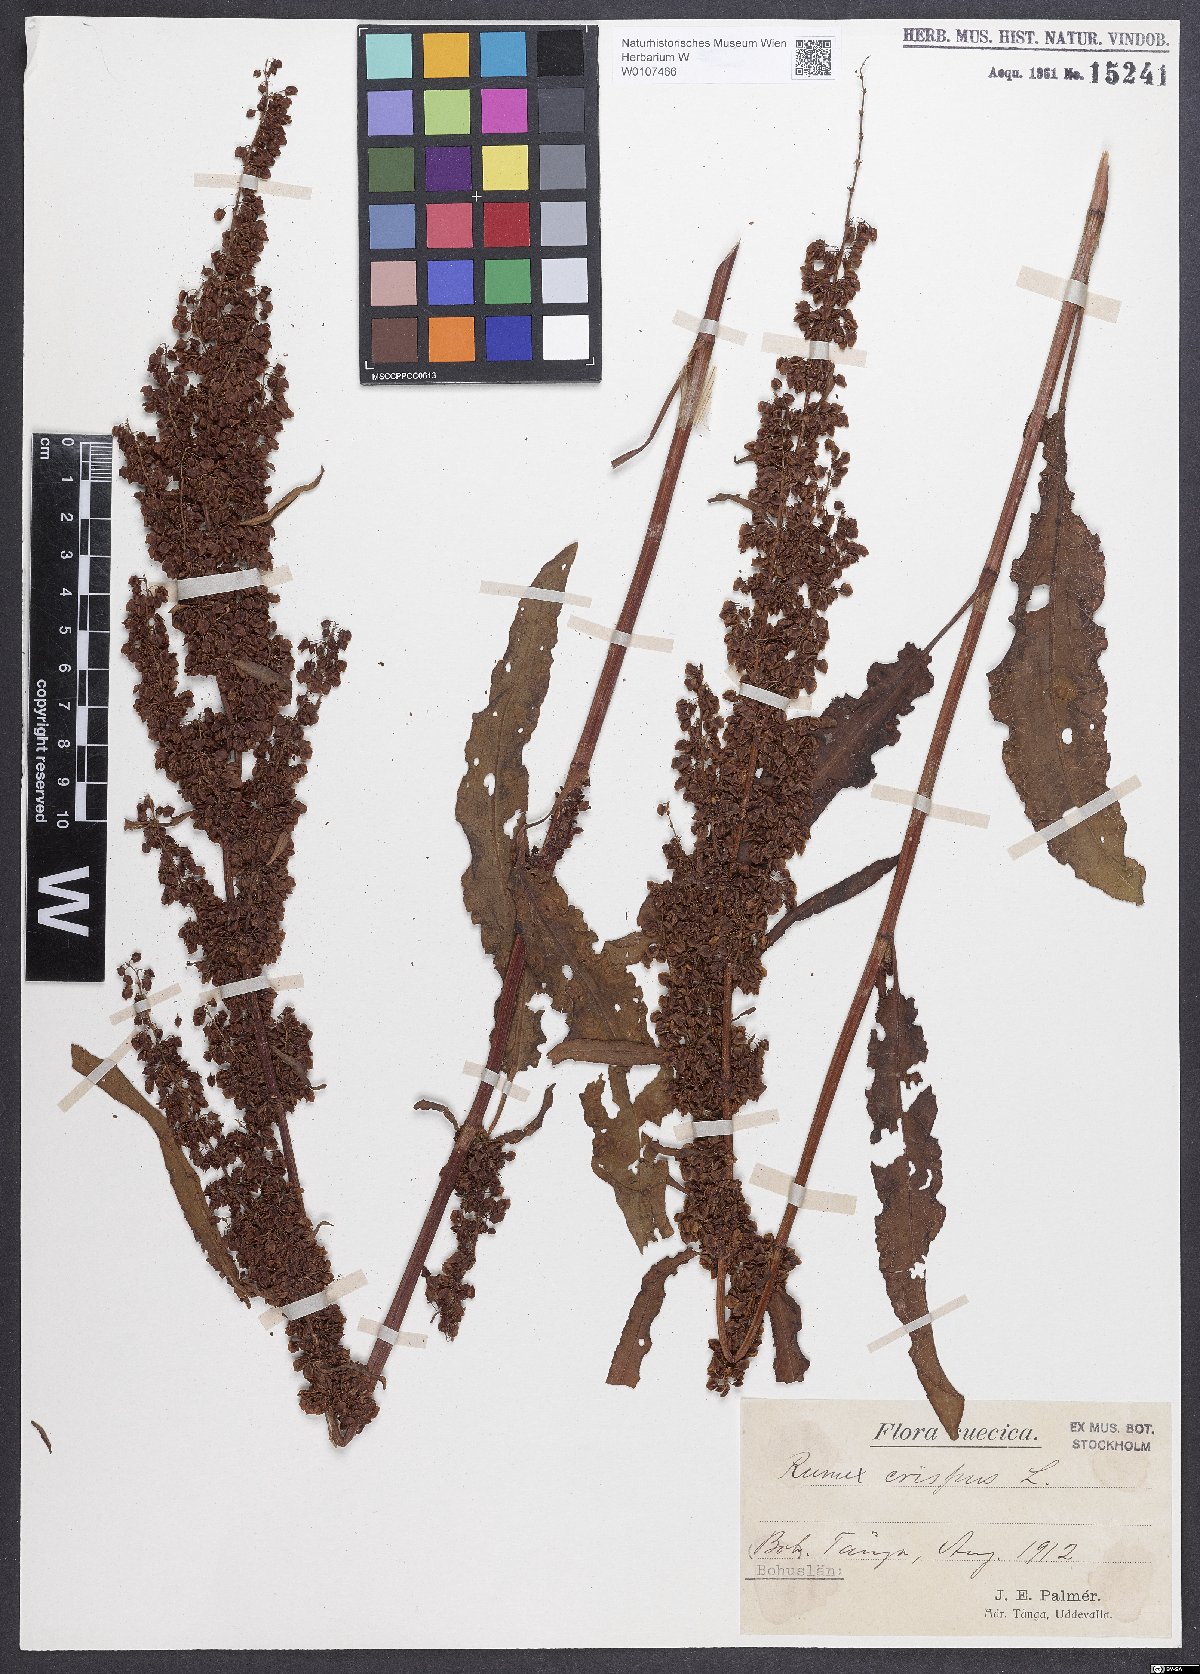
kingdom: Plantae
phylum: Tracheophyta
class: Magnoliopsida
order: Caryophyllales
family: Polygonaceae
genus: Rumex
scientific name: Rumex crispus
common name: Curled dock
